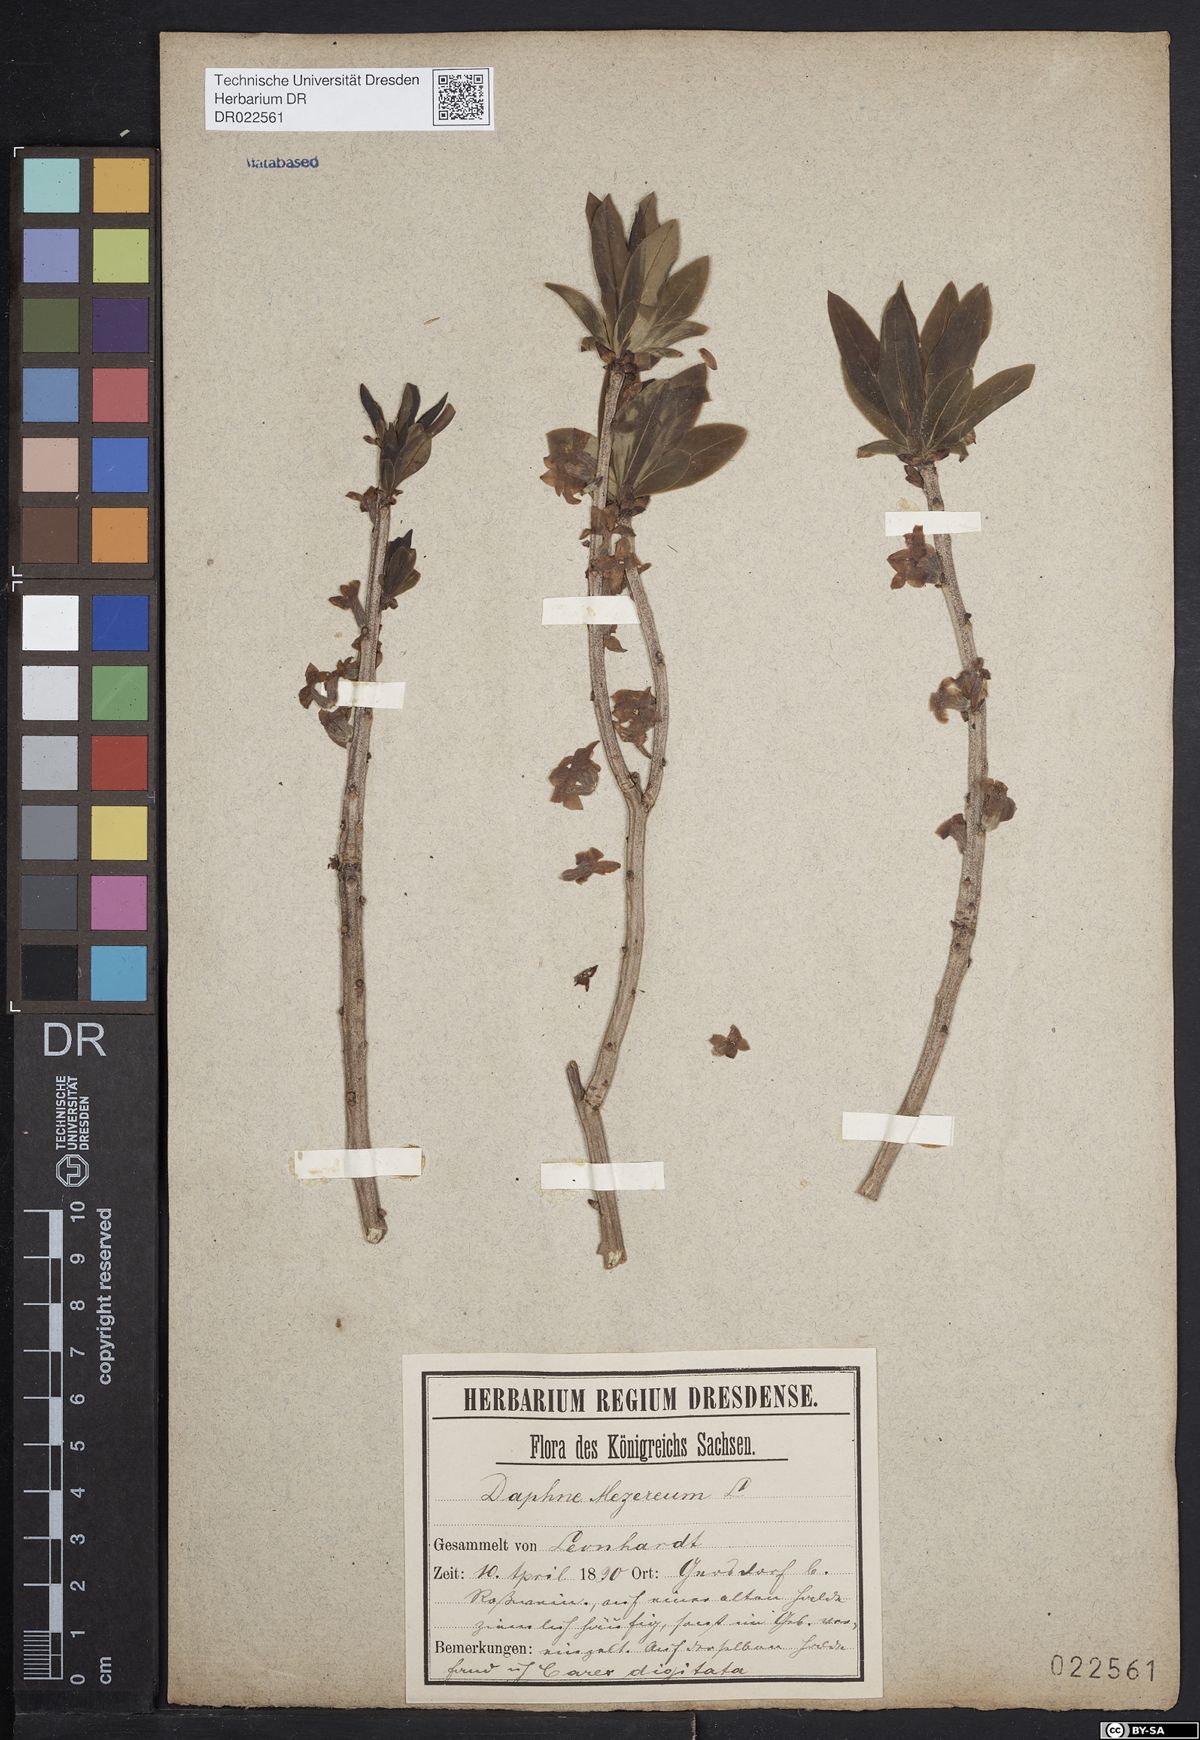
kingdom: Plantae
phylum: Tracheophyta
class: Magnoliopsida
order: Malvales
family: Thymelaeaceae
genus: Daphne
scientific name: Daphne mezereum
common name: Mezereon
